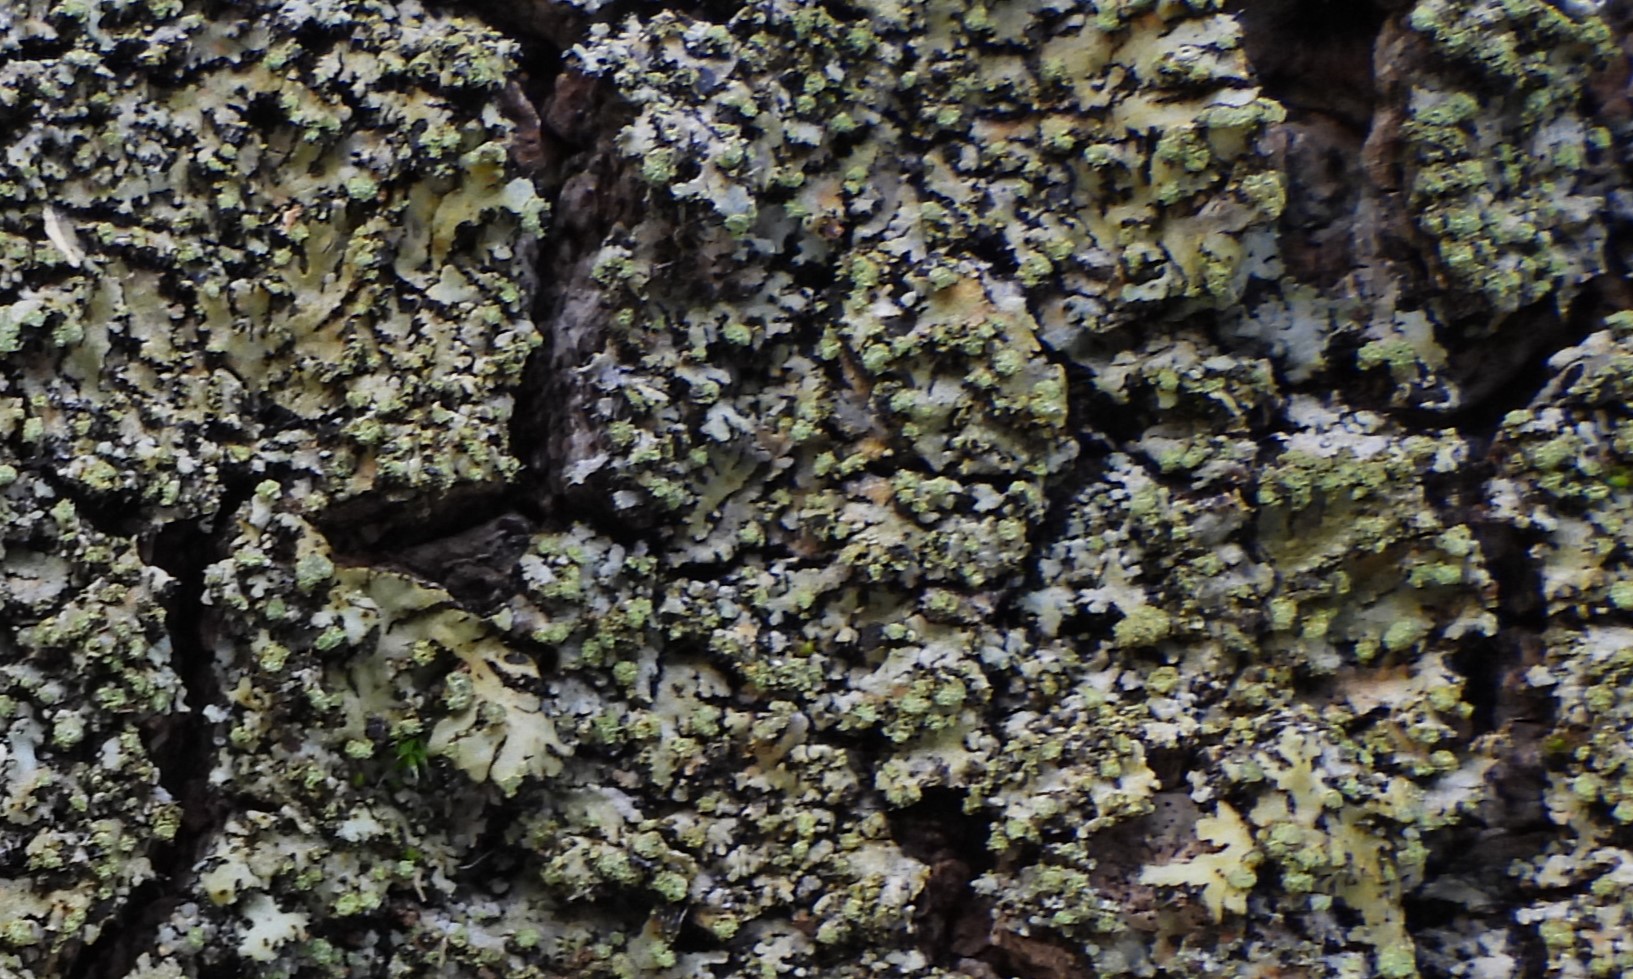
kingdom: Fungi
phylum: Ascomycota
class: Lecanoromycetes
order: Caliciales
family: Physciaceae
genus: Phaeophyscia
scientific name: Phaeophyscia orbicularis
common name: grågrøn rosetlav
